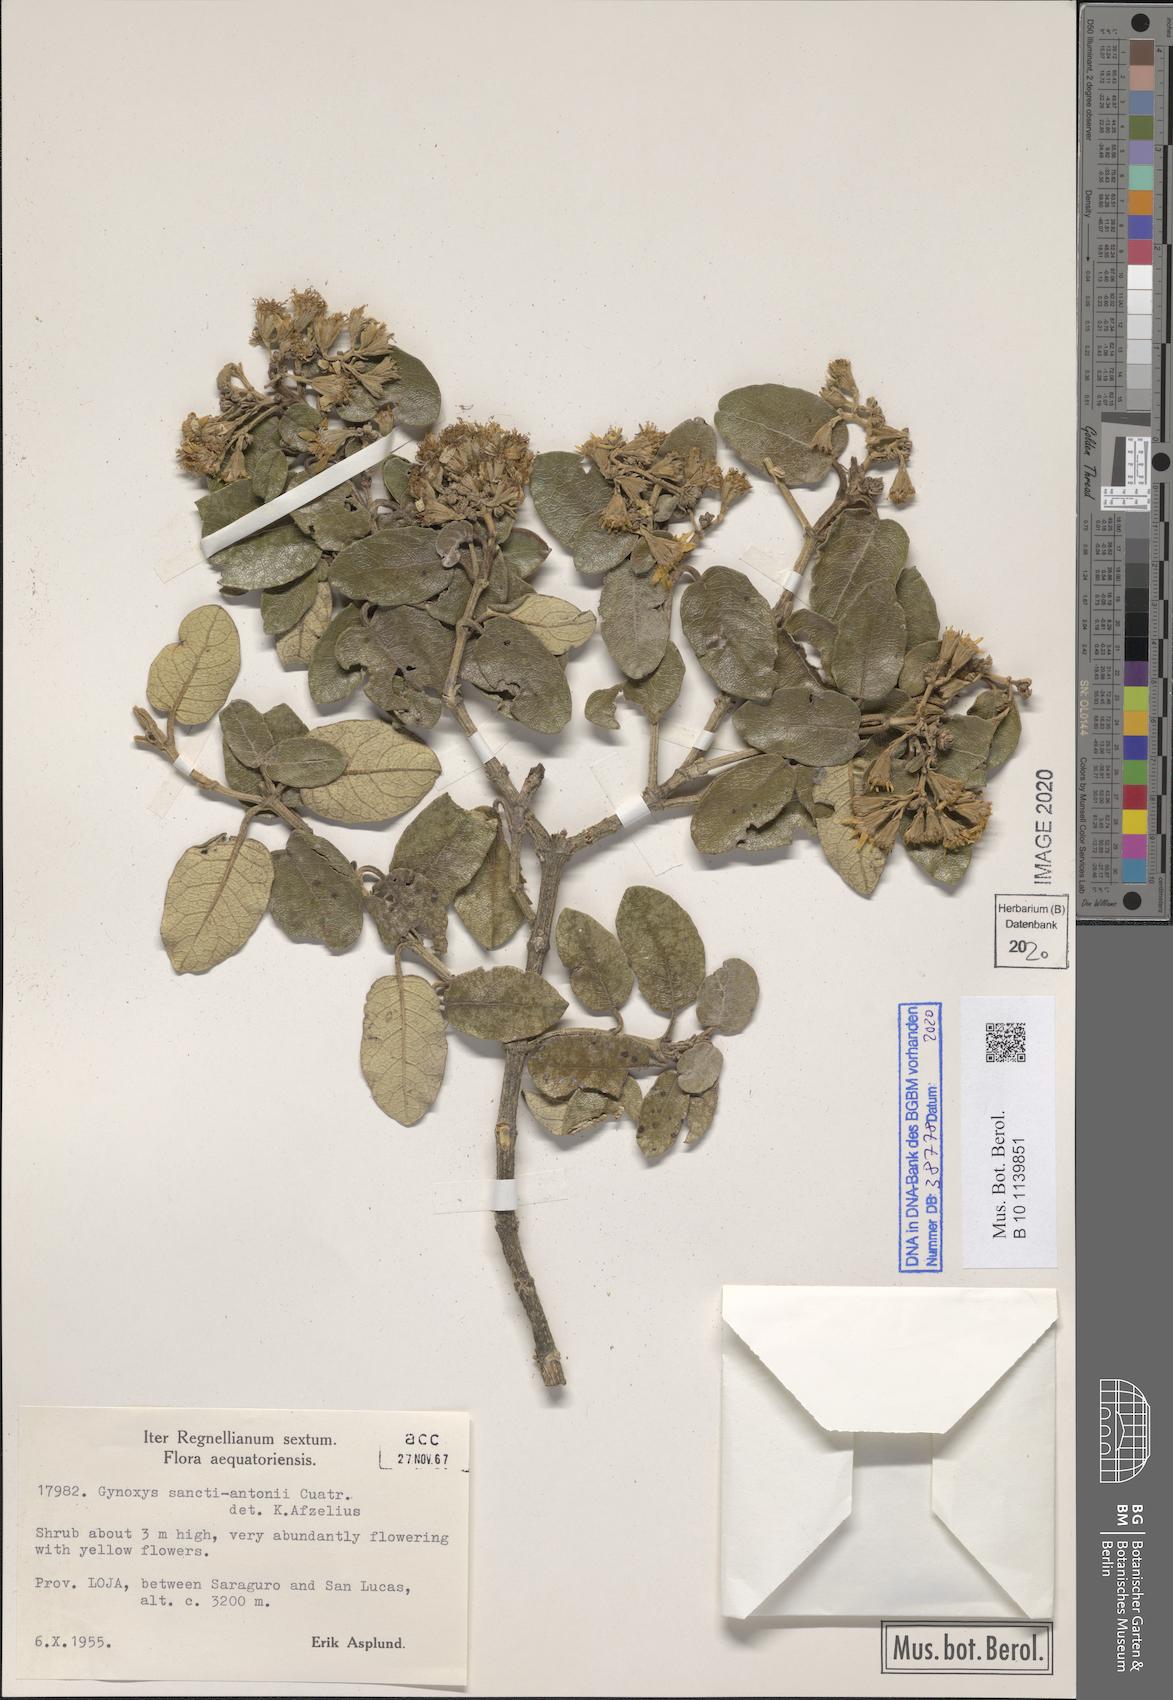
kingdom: Plantae
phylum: Tracheophyta
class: Magnoliopsida
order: Asterales
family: Asteraceae
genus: Gynoxys
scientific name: Gynoxys sancti-antonii
